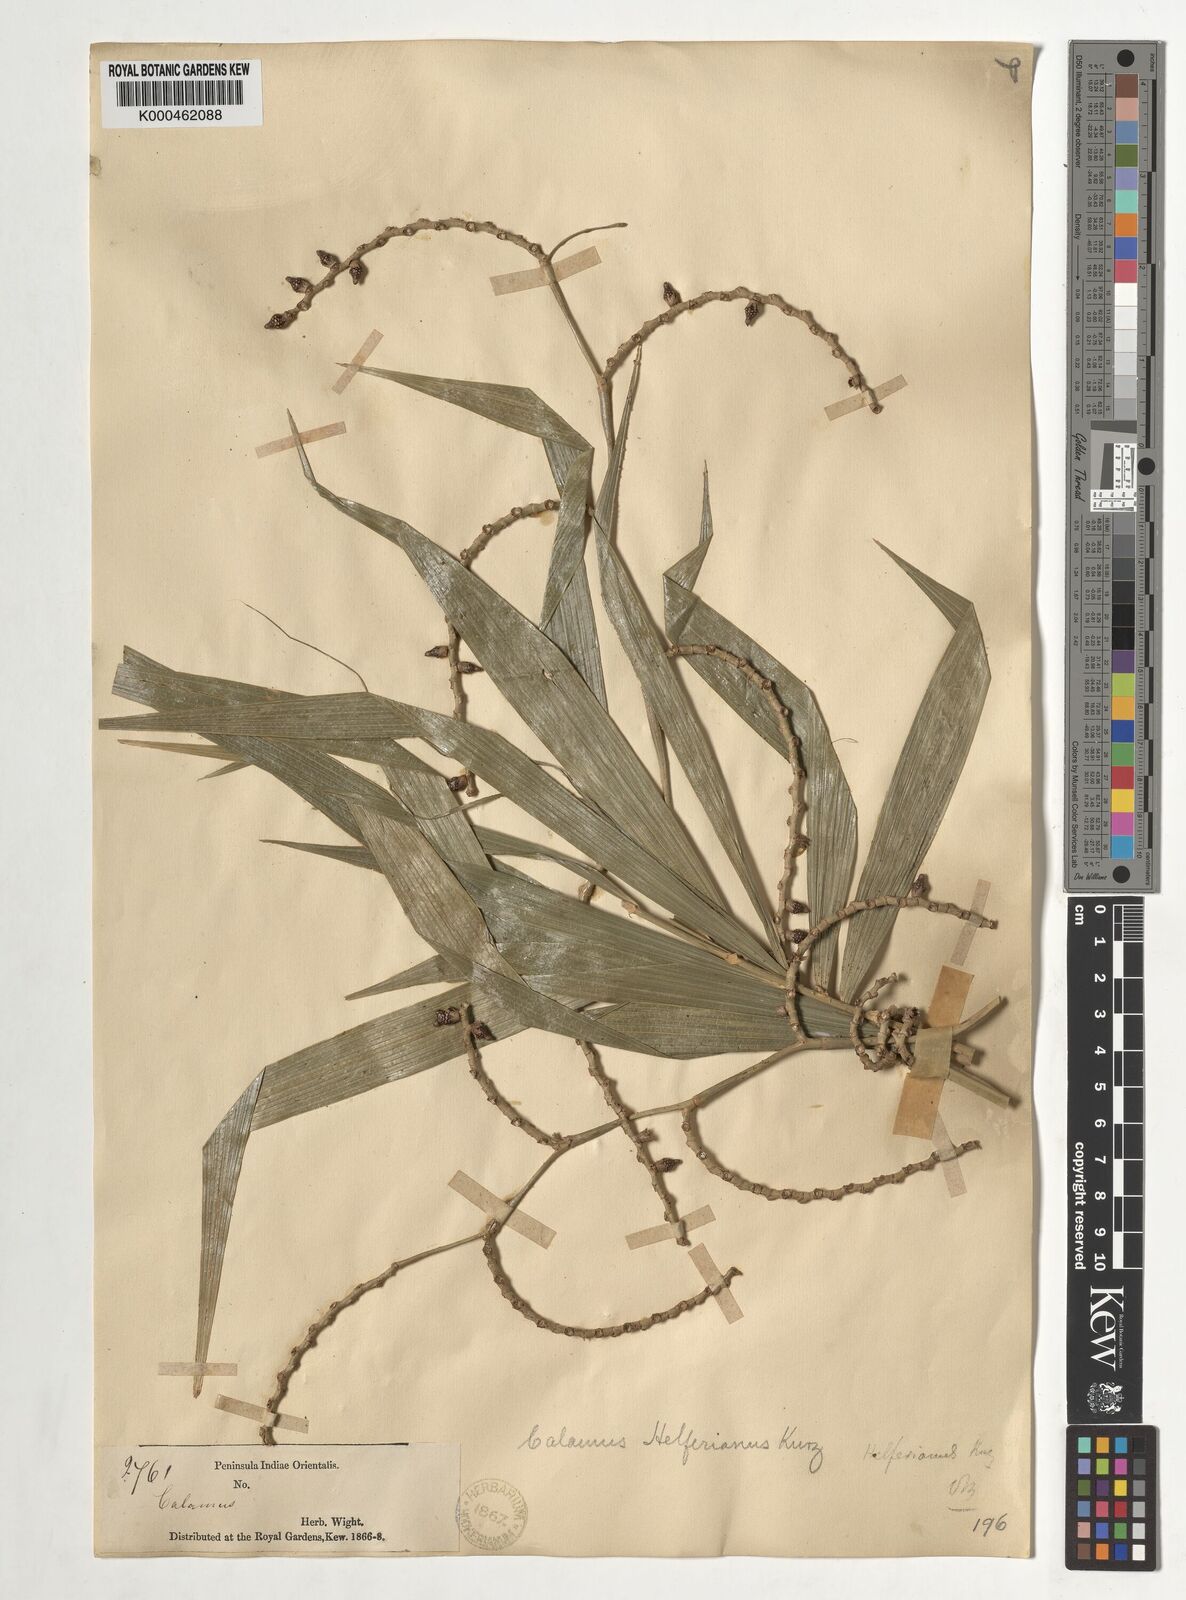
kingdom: Plantae
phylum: Tracheophyta
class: Liliopsida
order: Arecales
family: Arecaceae
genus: Calamus
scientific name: Calamus helferianus
